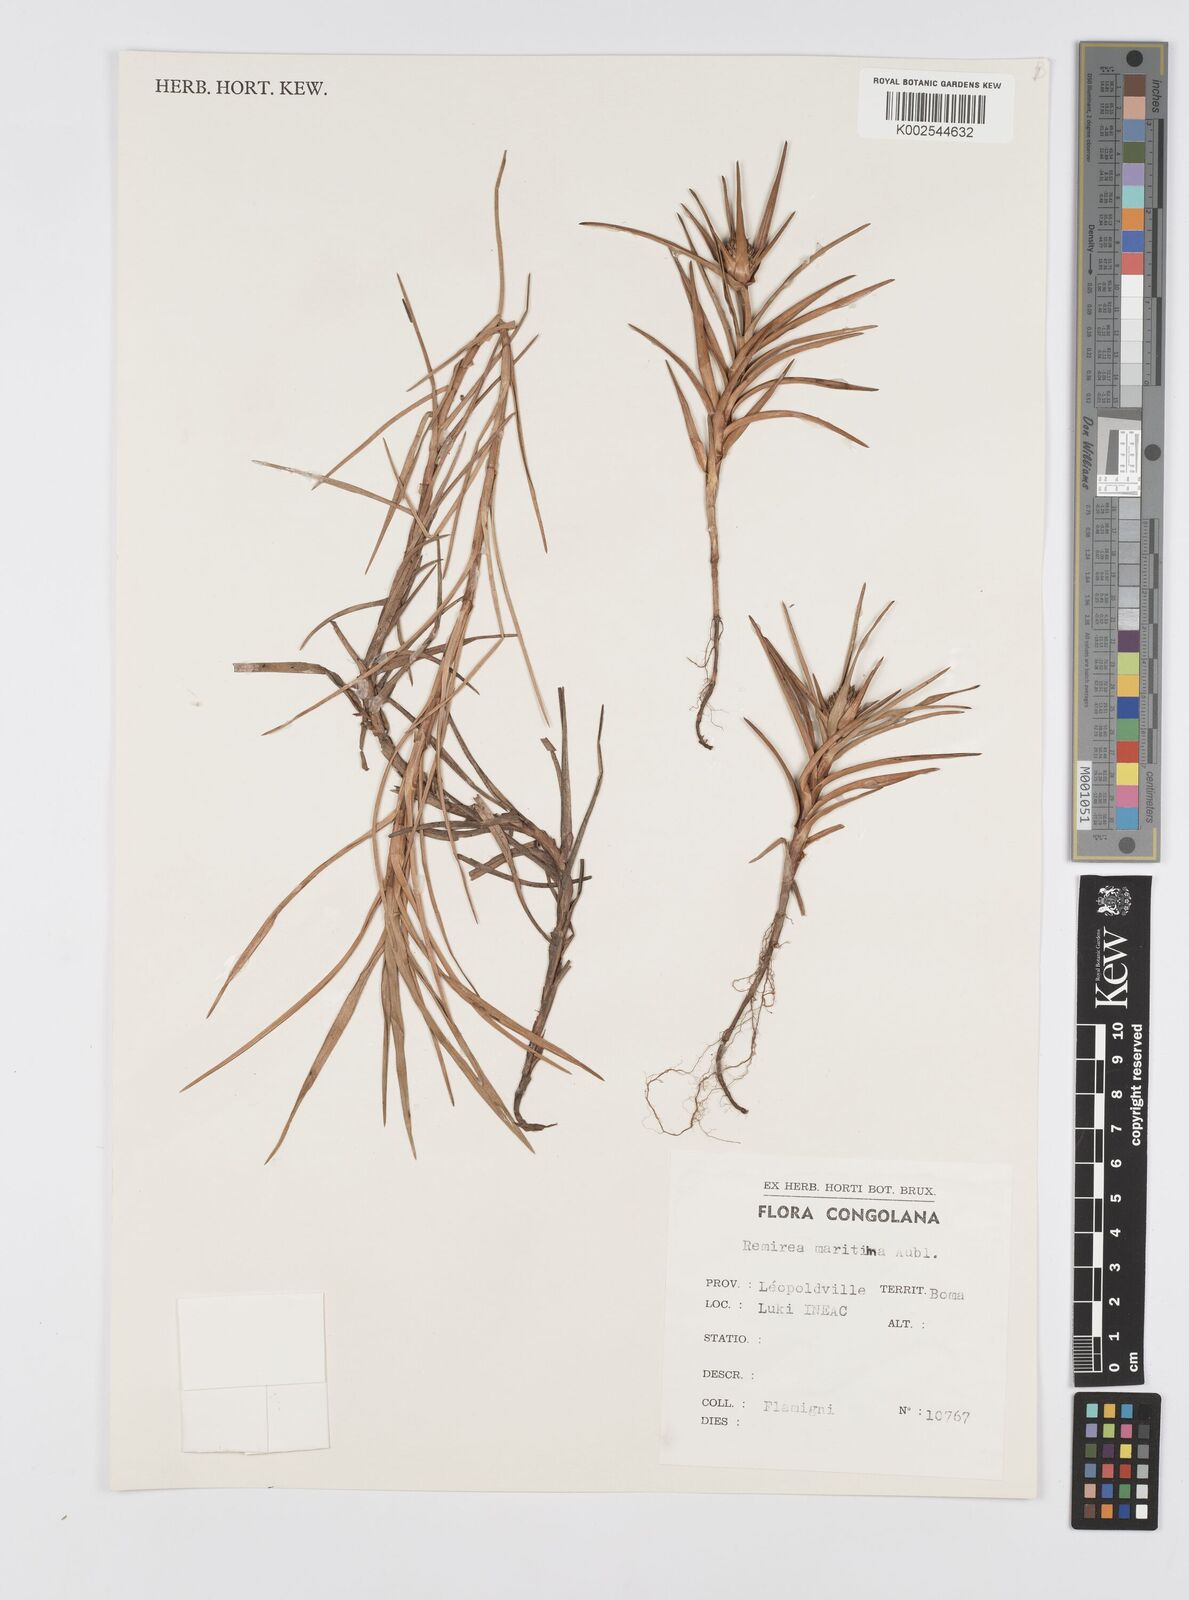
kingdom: Plantae
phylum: Tracheophyta
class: Liliopsida
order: Poales
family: Cyperaceae
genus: Cyperus
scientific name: Cyperus
